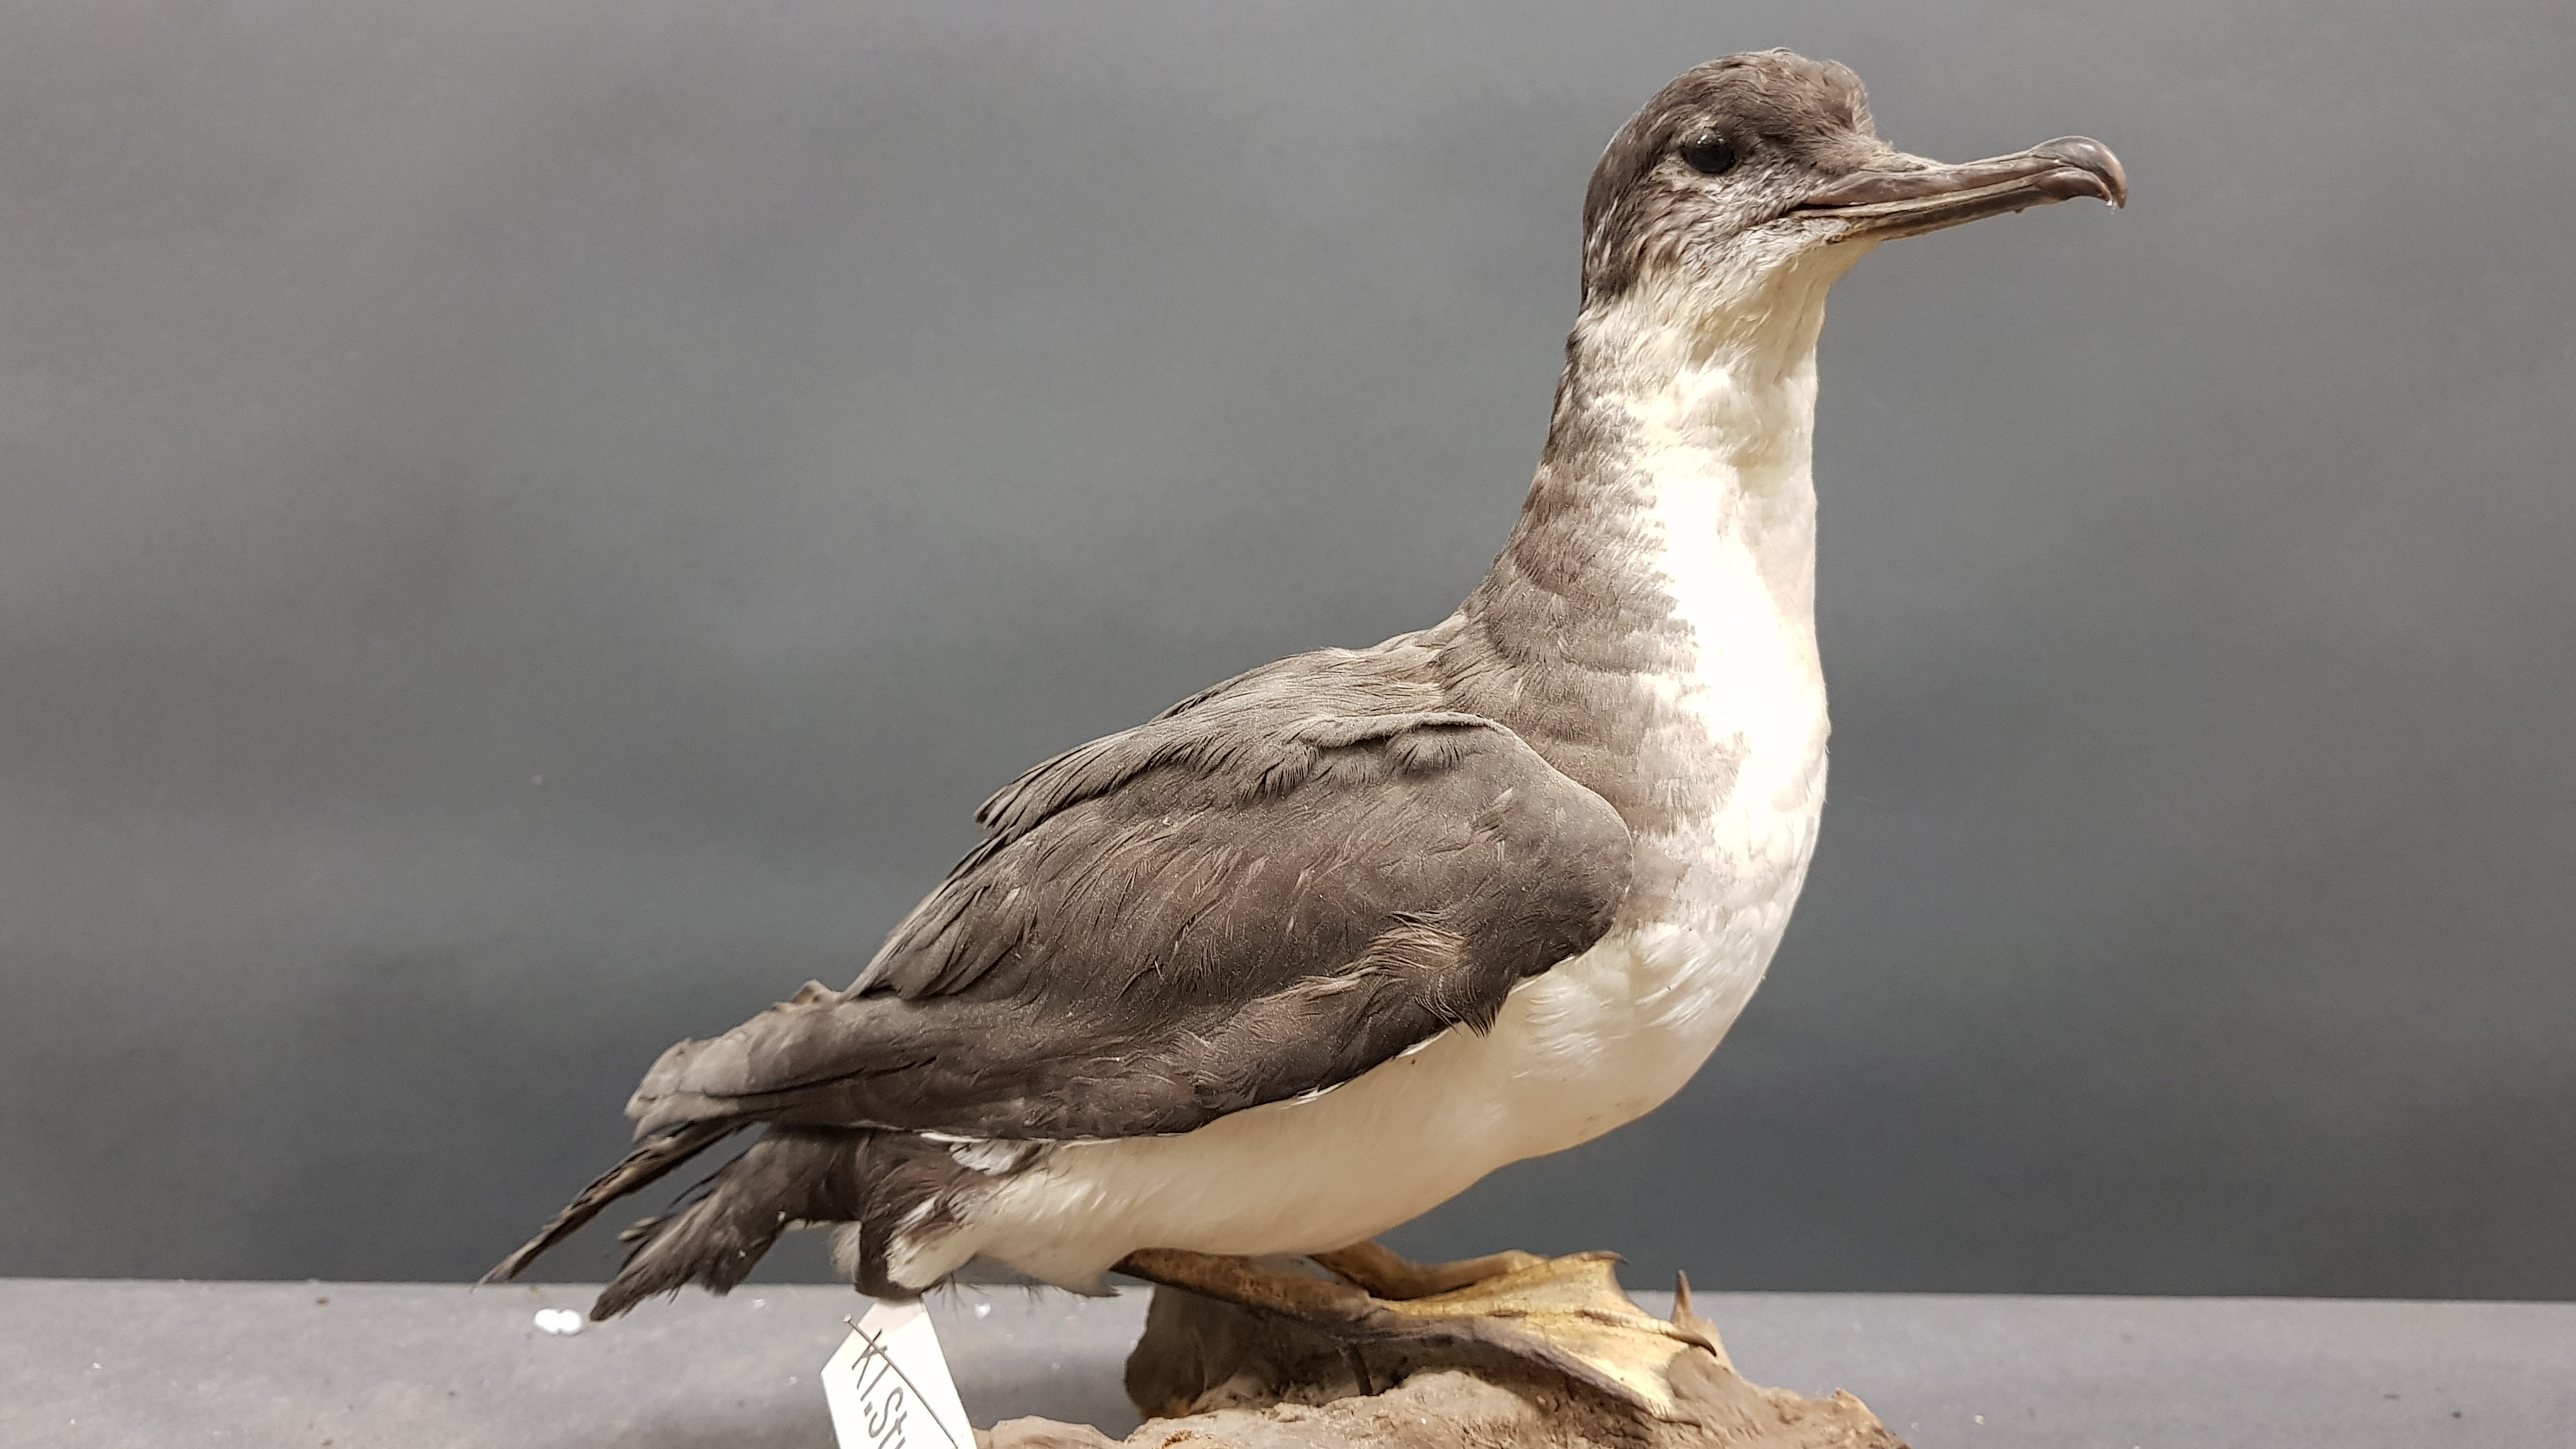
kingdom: Animalia
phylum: Chordata
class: Aves
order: Procellariiformes
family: Procellariidae
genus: Puffinus
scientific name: Puffinus assimilis
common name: Little shearwater
